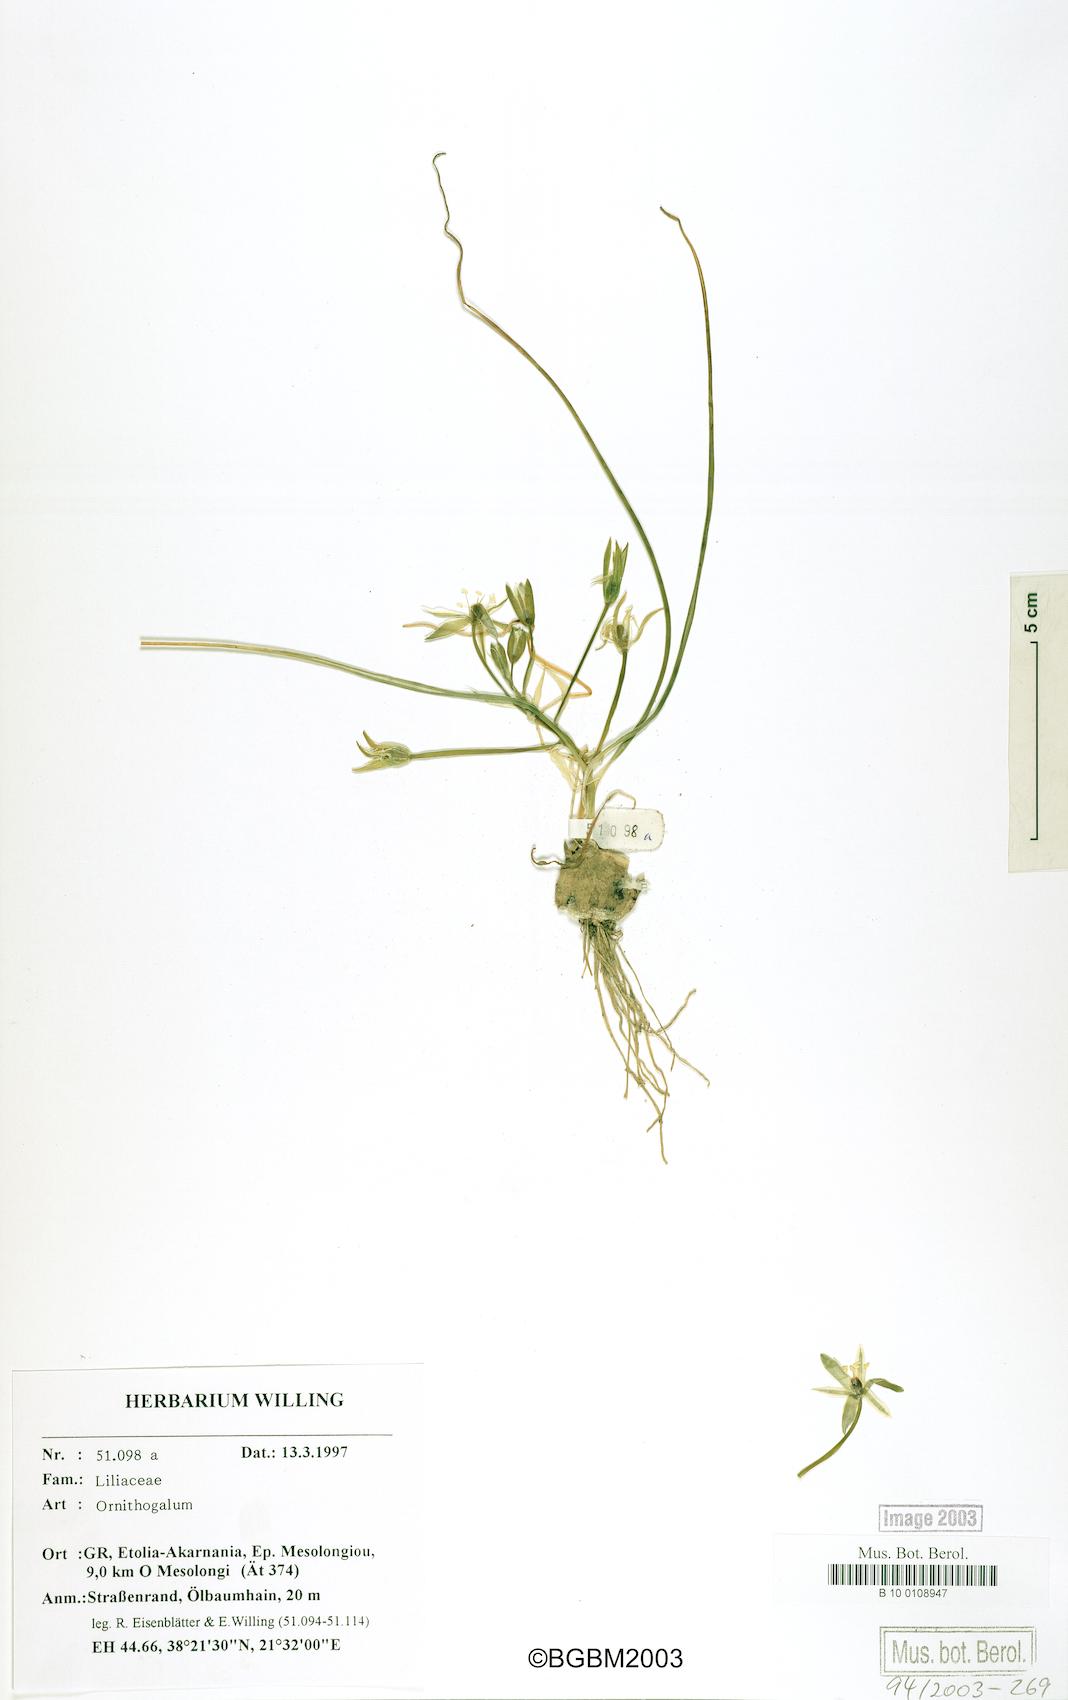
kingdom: Plantae
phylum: Tracheophyta
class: Liliopsida
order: Liliales
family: Liliaceae
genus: Ornithogalum
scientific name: Ornithogalum
